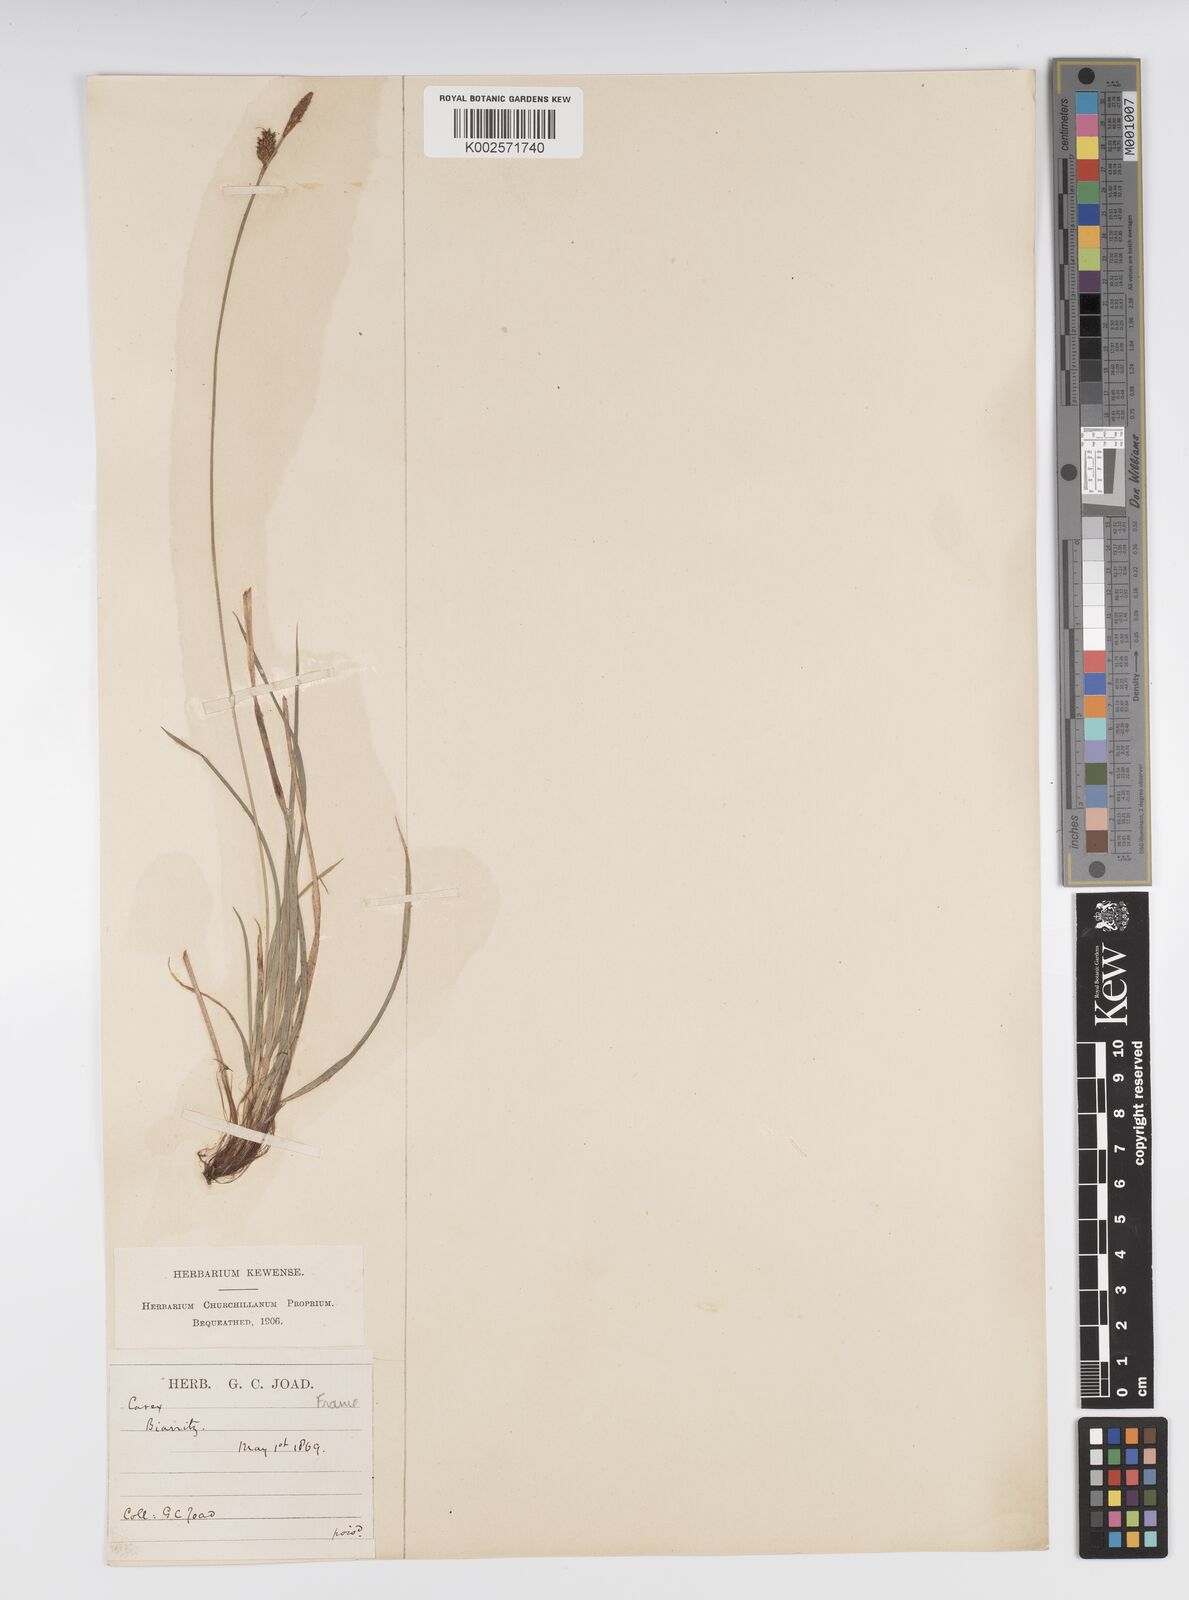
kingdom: Plantae
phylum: Tracheophyta
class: Liliopsida
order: Poales
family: Cyperaceae
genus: Carex
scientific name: Carex caryophyllea
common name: Spring sedge
